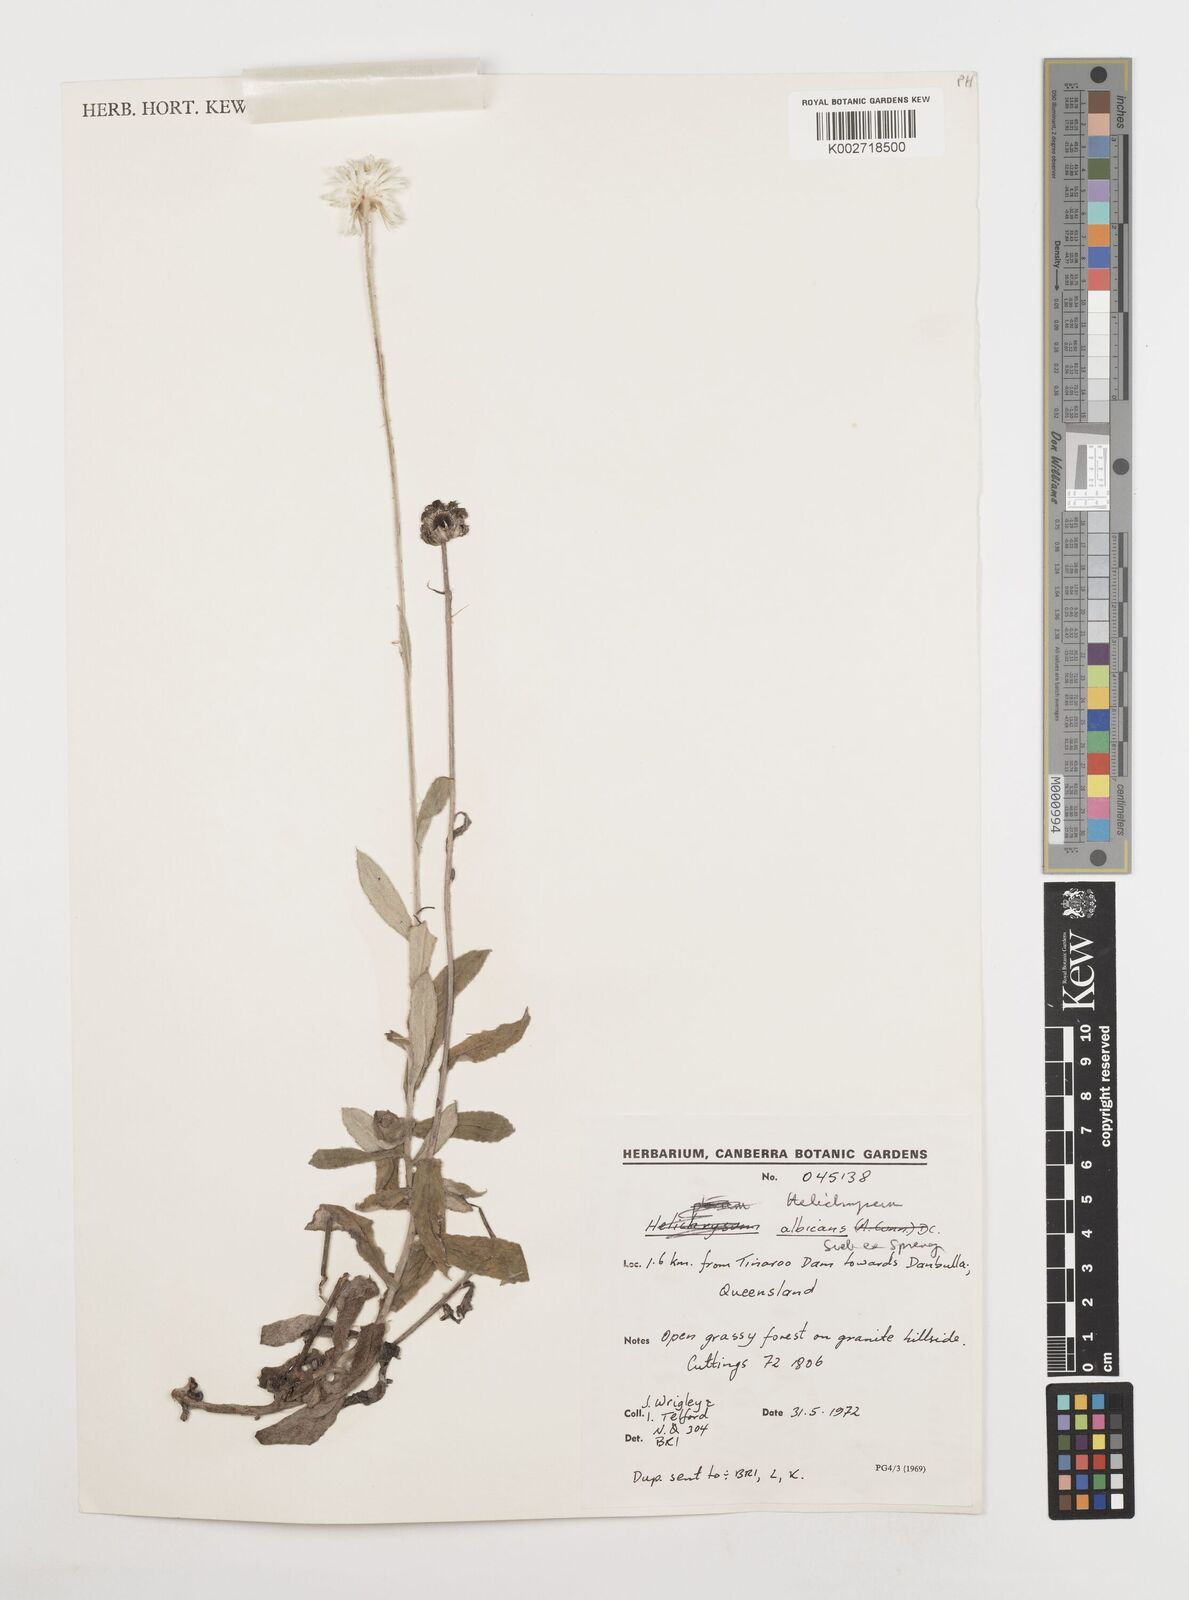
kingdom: Plantae
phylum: Tracheophyta
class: Magnoliopsida
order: Asterales
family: Asteraceae
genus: Leucozoma
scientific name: Leucozoma elatum
